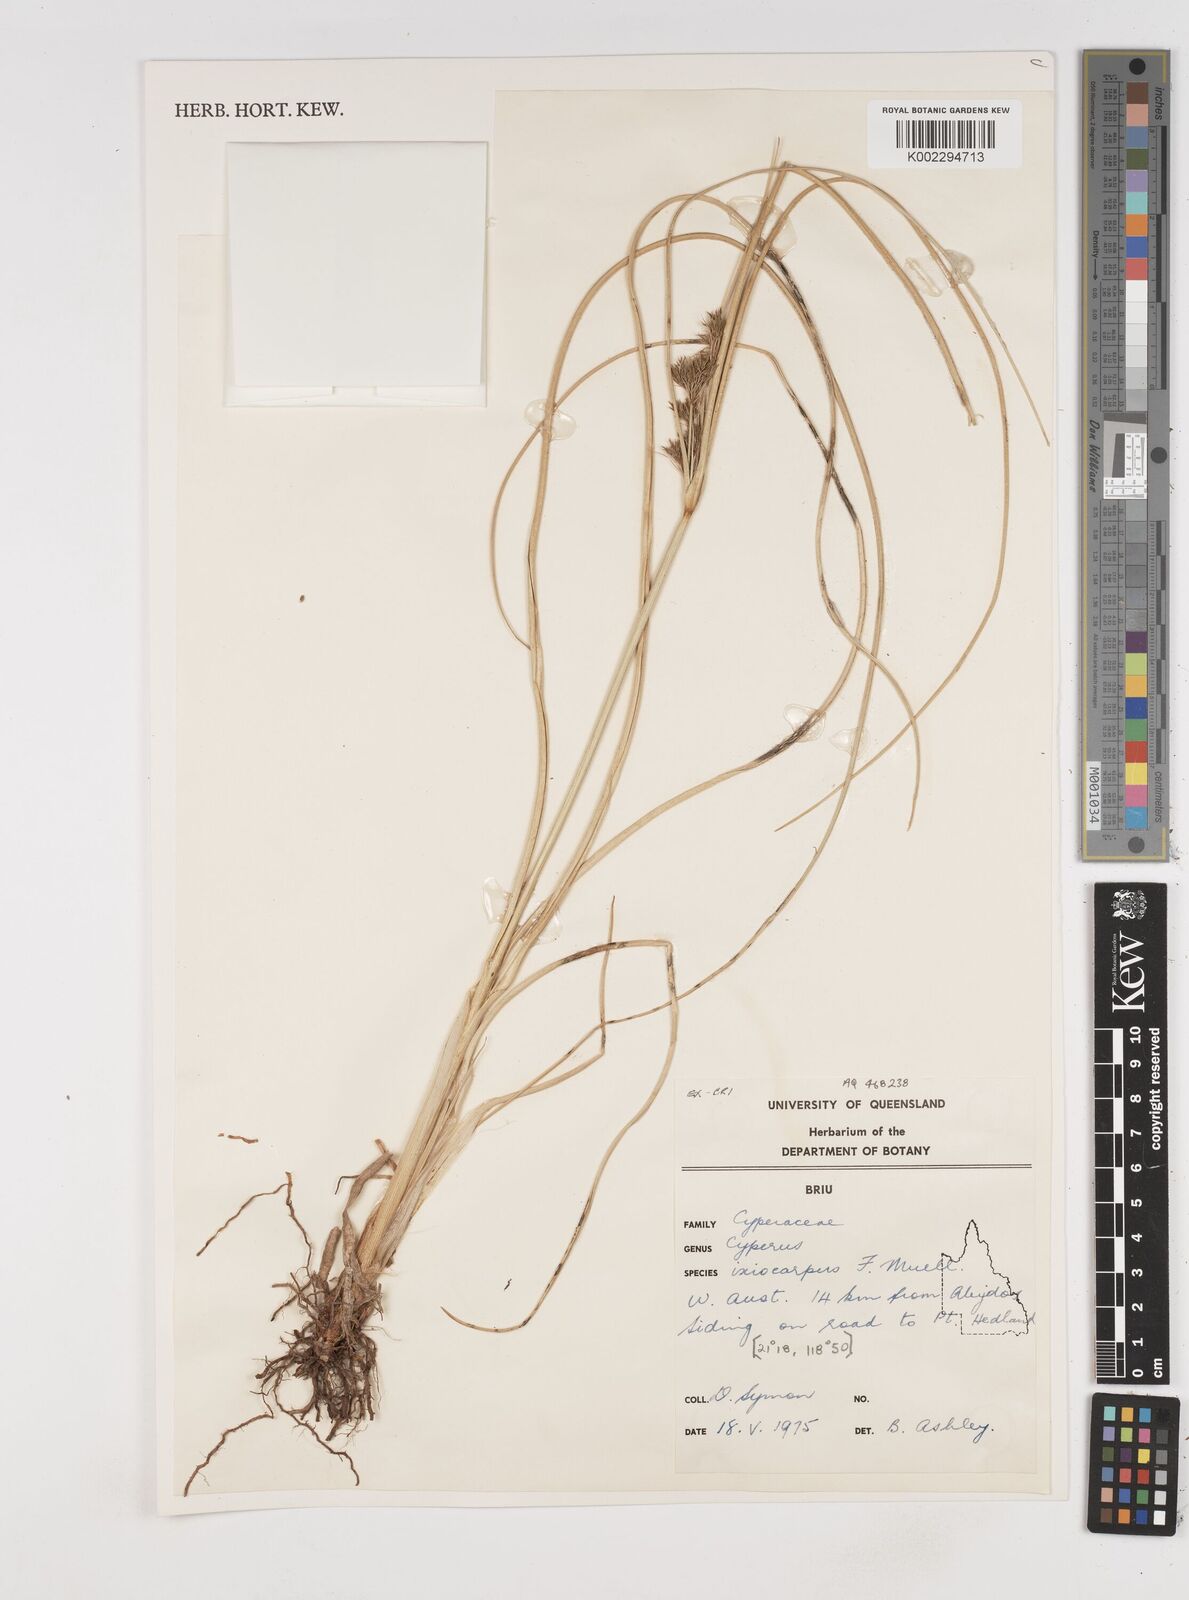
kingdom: Plantae
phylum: Tracheophyta
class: Liliopsida
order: Poales
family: Cyperaceae
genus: Cyperus
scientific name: Cyperus ixiocarpus
